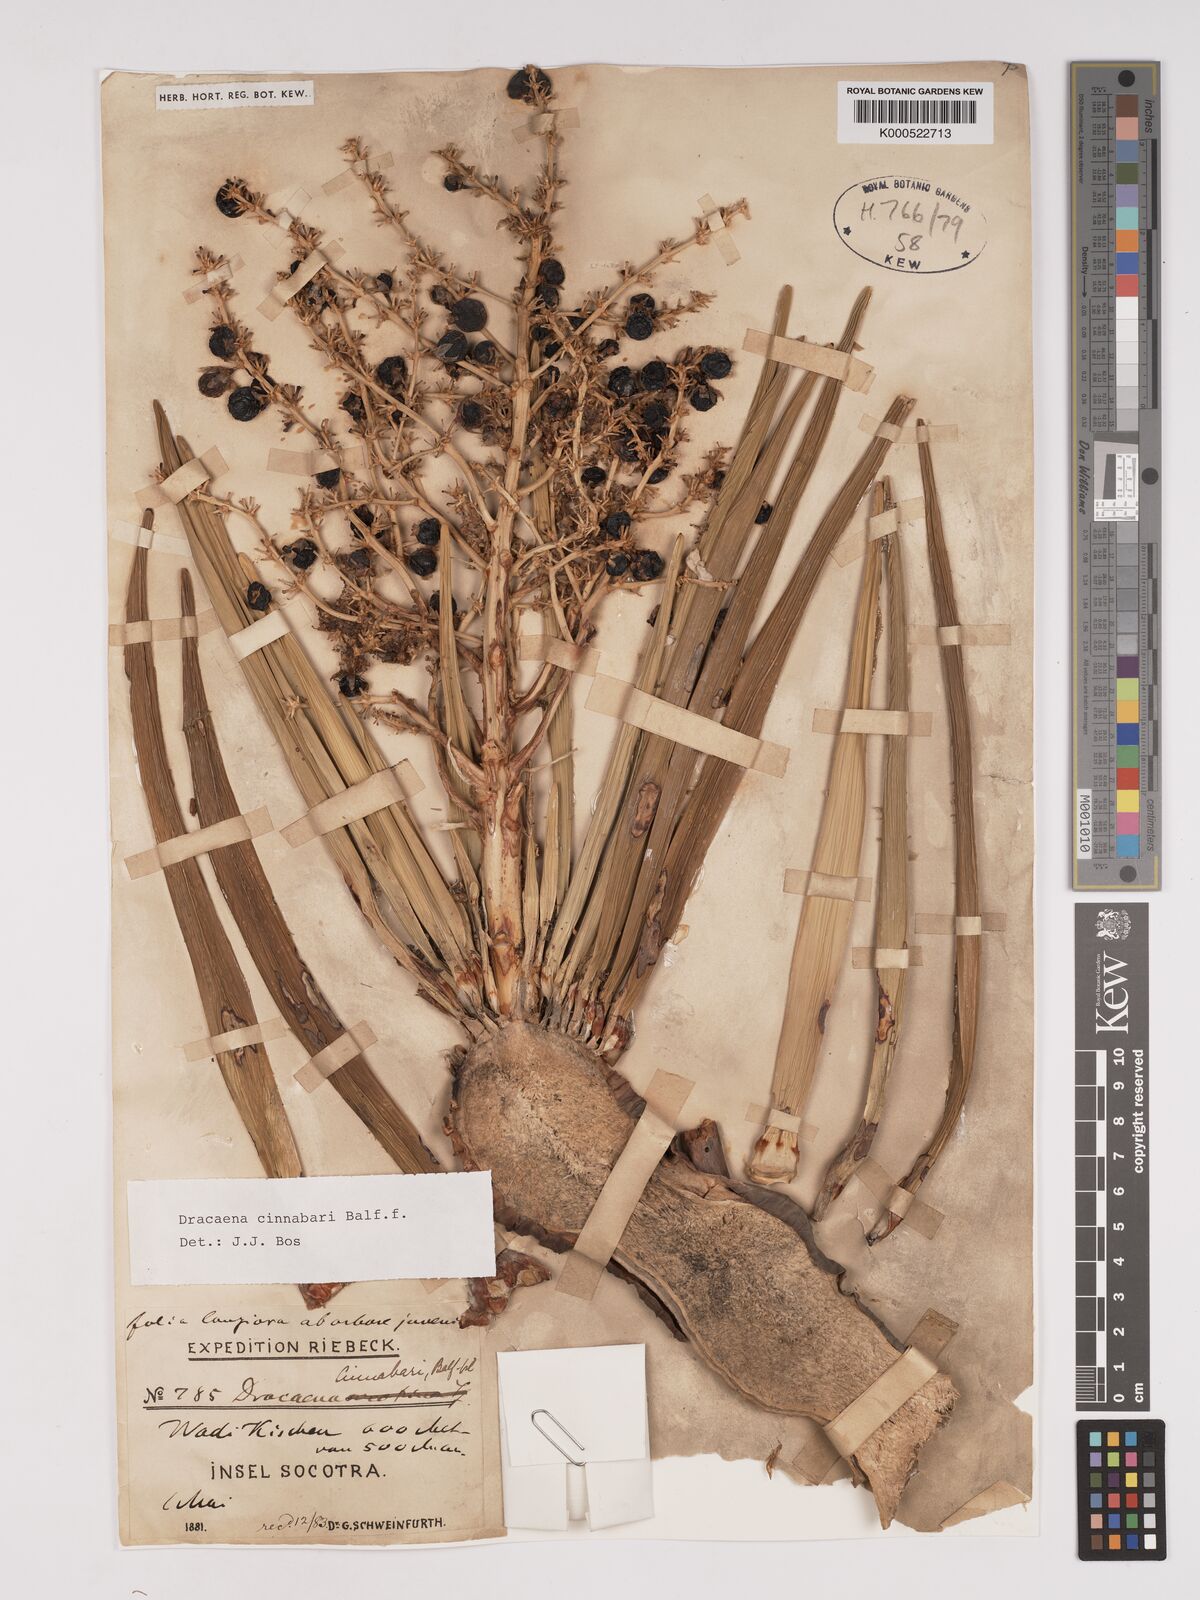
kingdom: Plantae
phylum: Tracheophyta
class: Liliopsida
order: Asparagales
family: Asparagaceae
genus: Dracaena
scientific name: Dracaena cinnabari
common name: Dragon's blood tree
